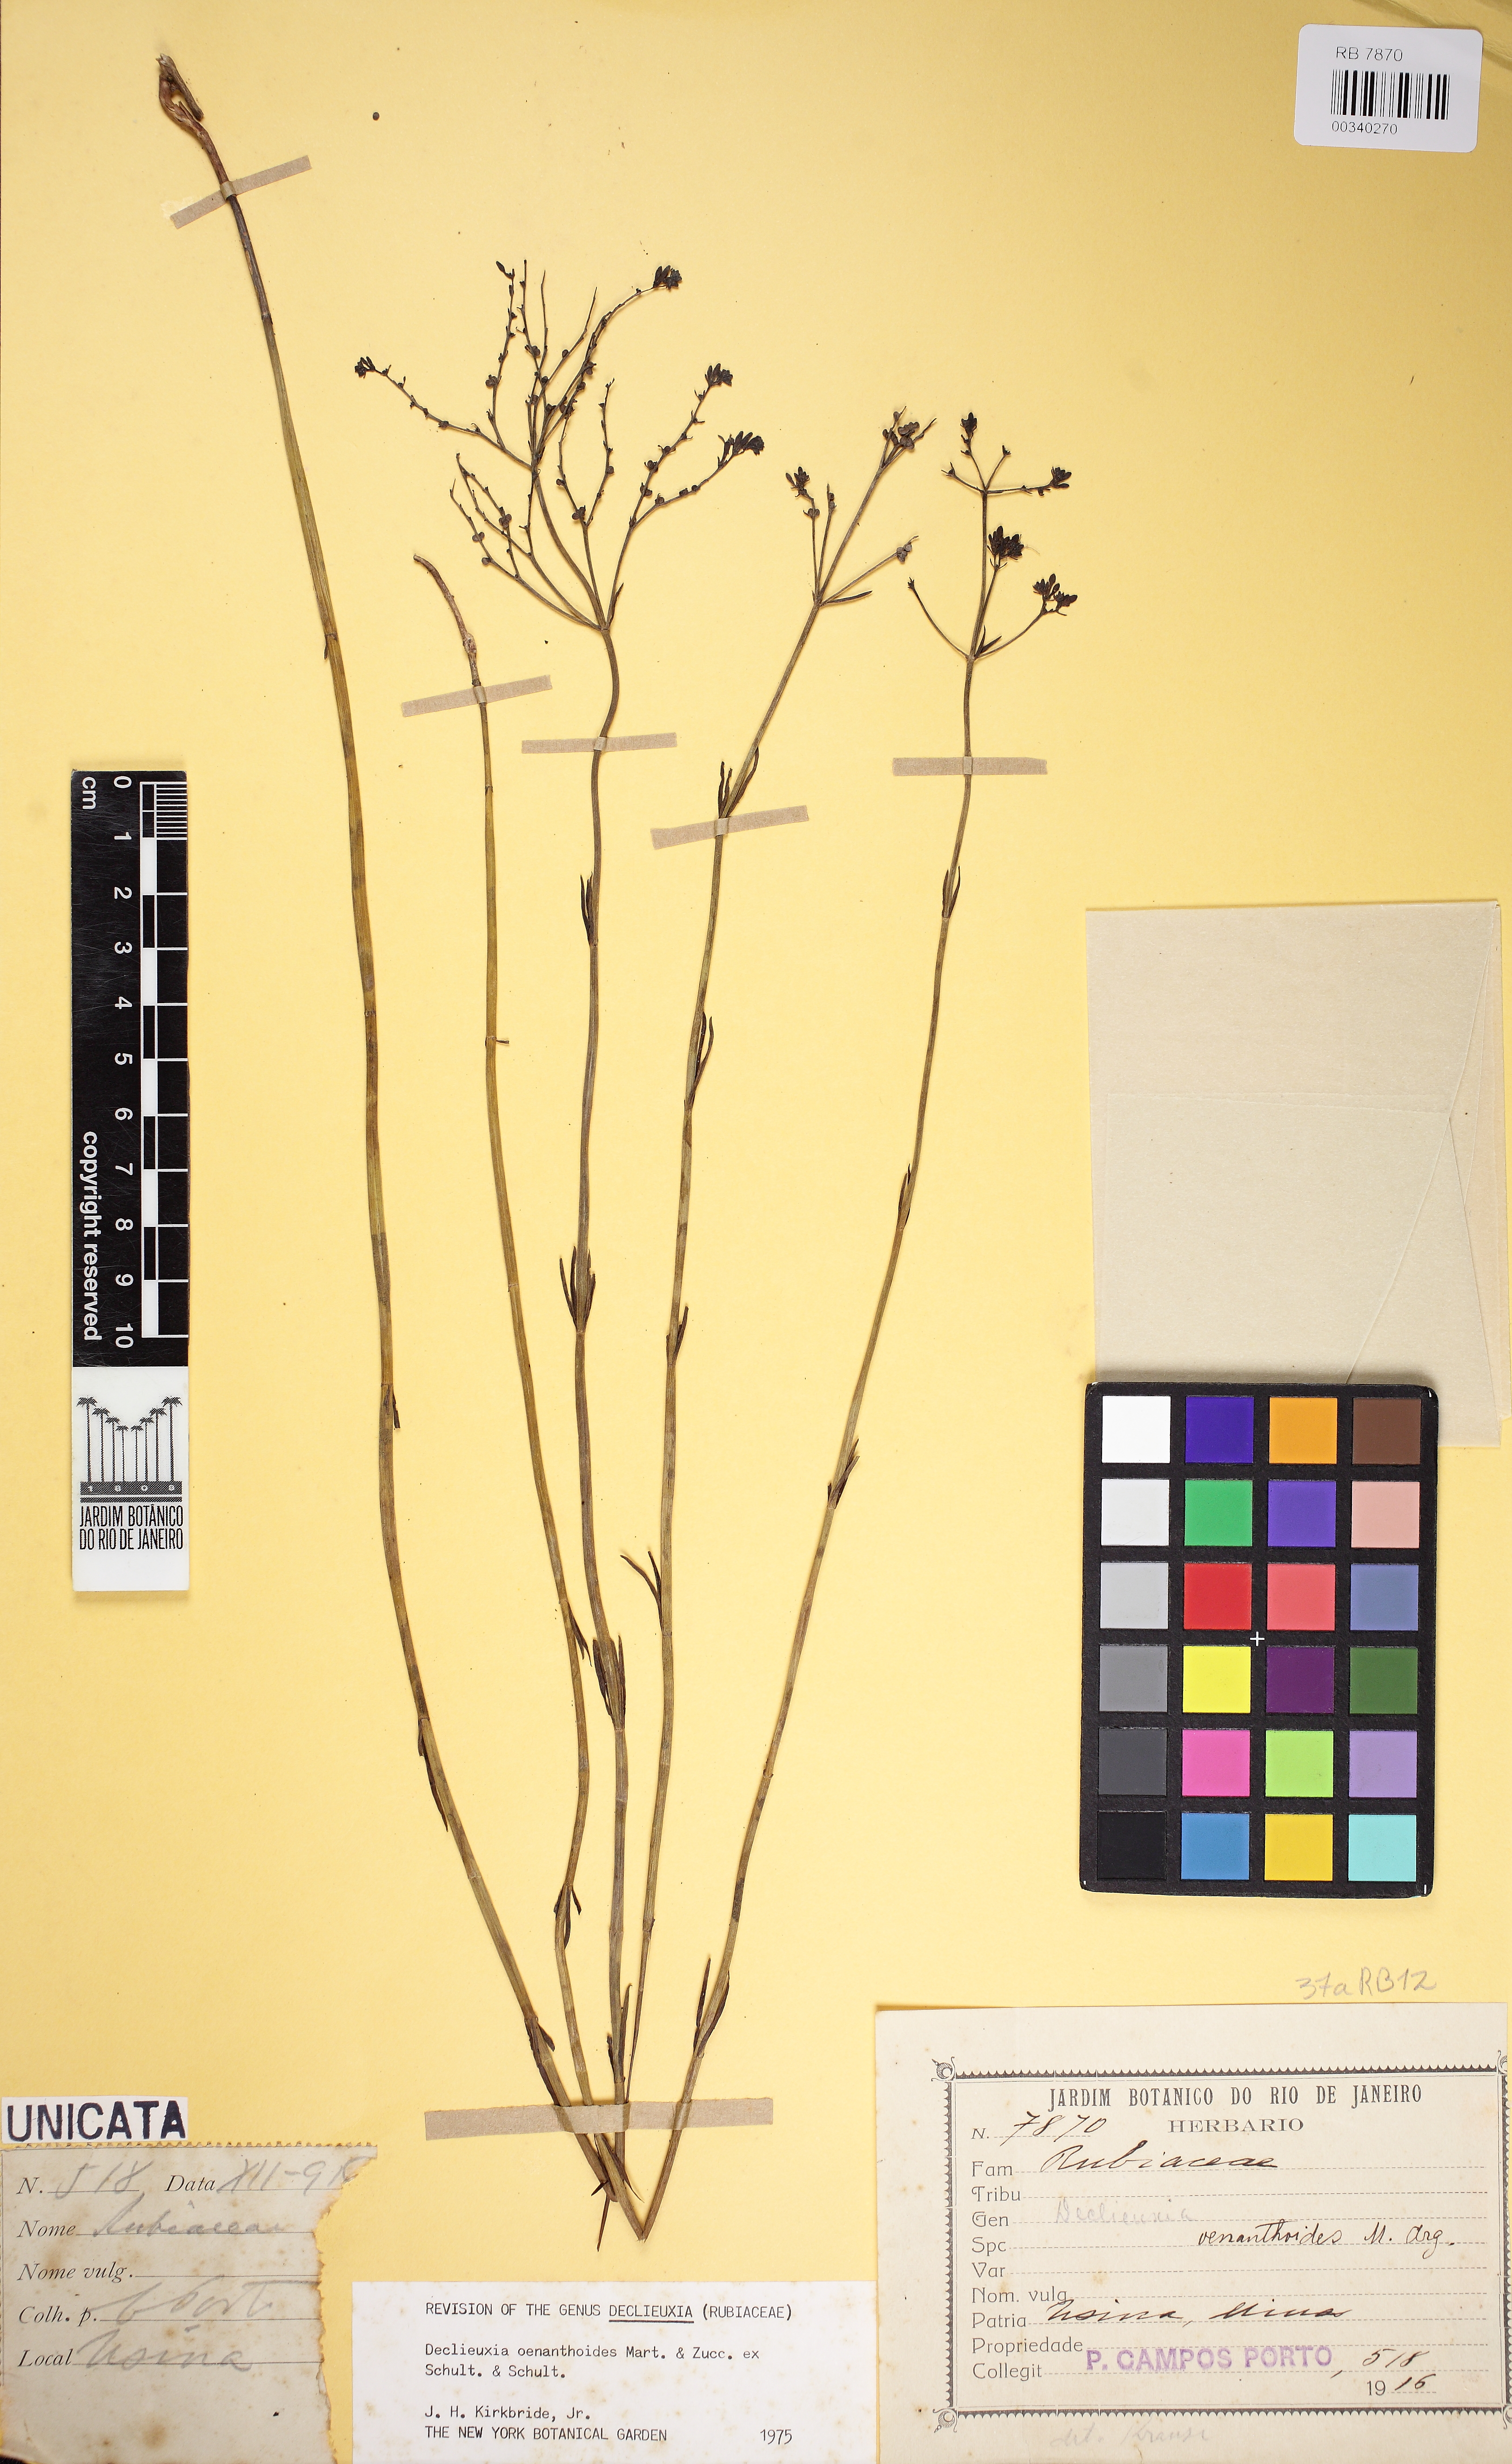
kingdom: Plantae
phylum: Tracheophyta
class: Magnoliopsida
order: Gentianales
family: Rubiaceae
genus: Declieuxia
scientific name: Declieuxia oenanthoides
